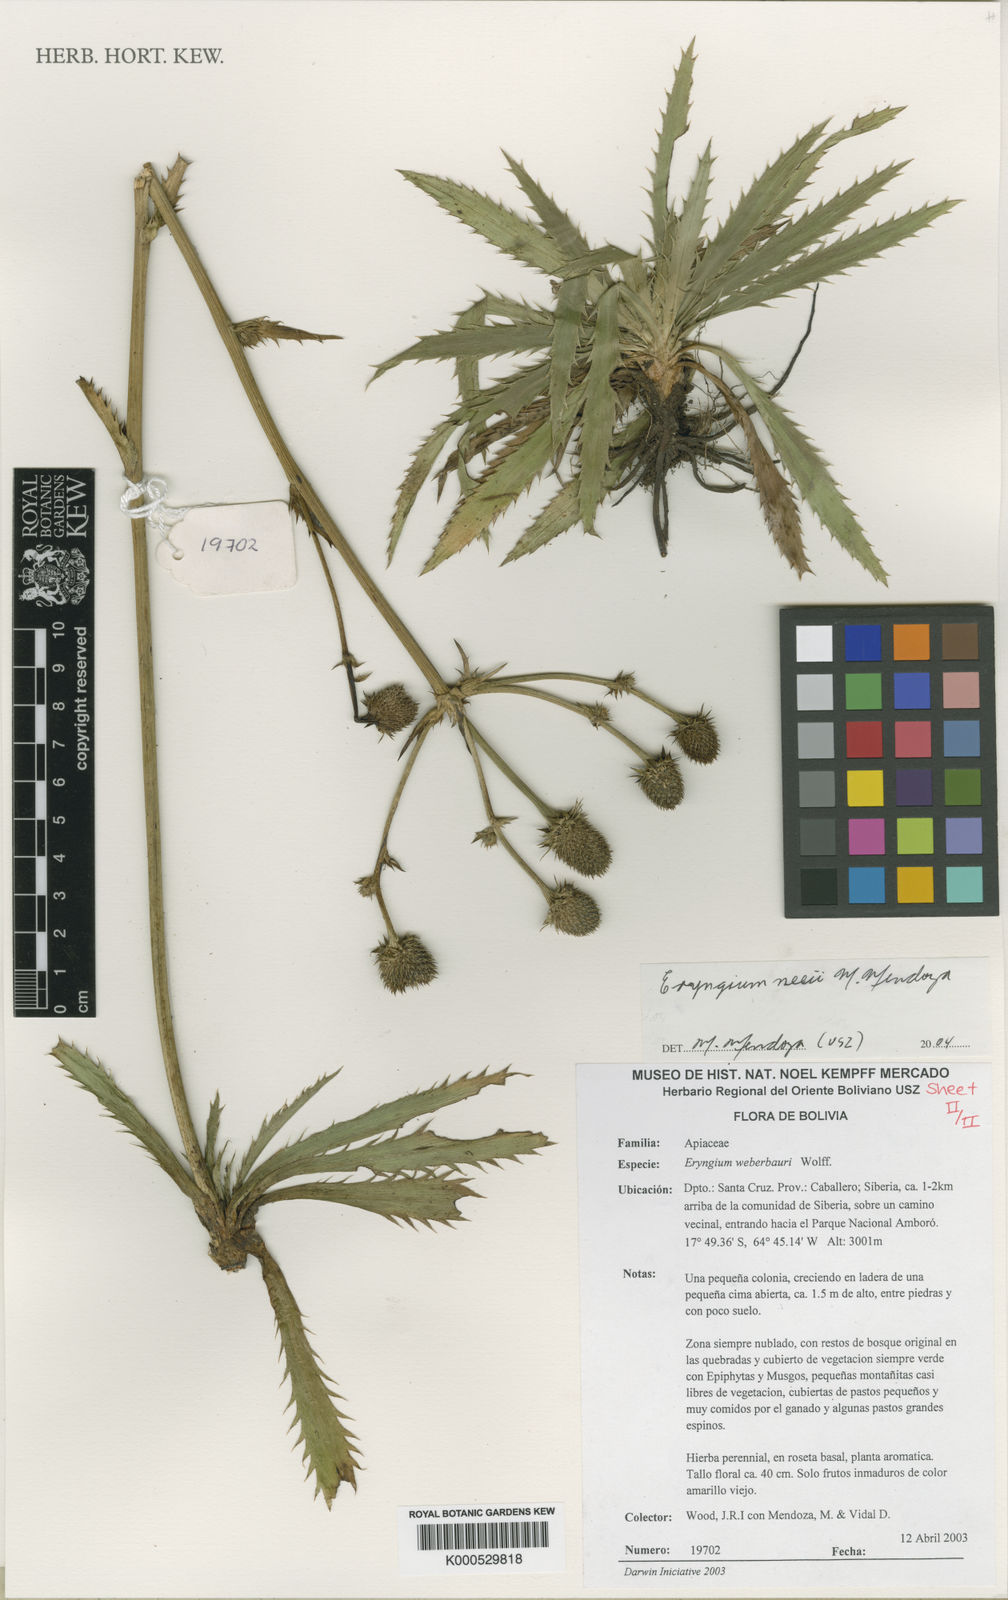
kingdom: Plantae
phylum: Tracheophyta
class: Magnoliopsida
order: Apiales
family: Apiaceae
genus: Eryngium
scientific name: Eryngium neei
